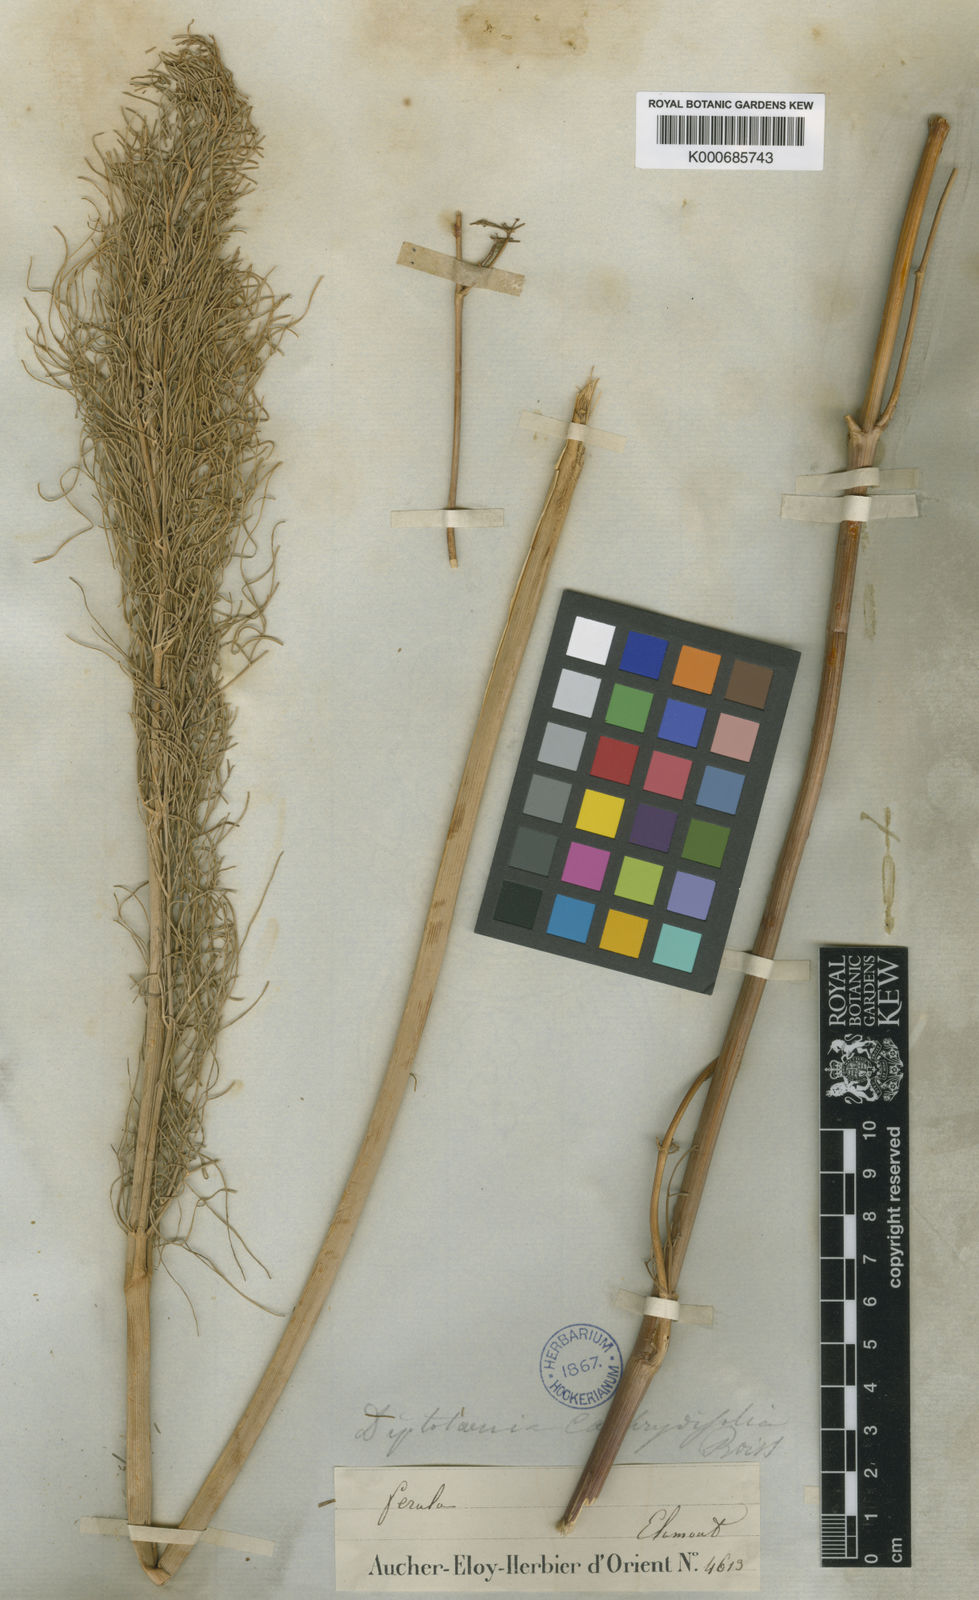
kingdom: Plantae
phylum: Tracheophyta
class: Magnoliopsida
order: Apiales
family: Apiaceae
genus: Diplotaenia
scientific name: Diplotaenia cachrydifolia
